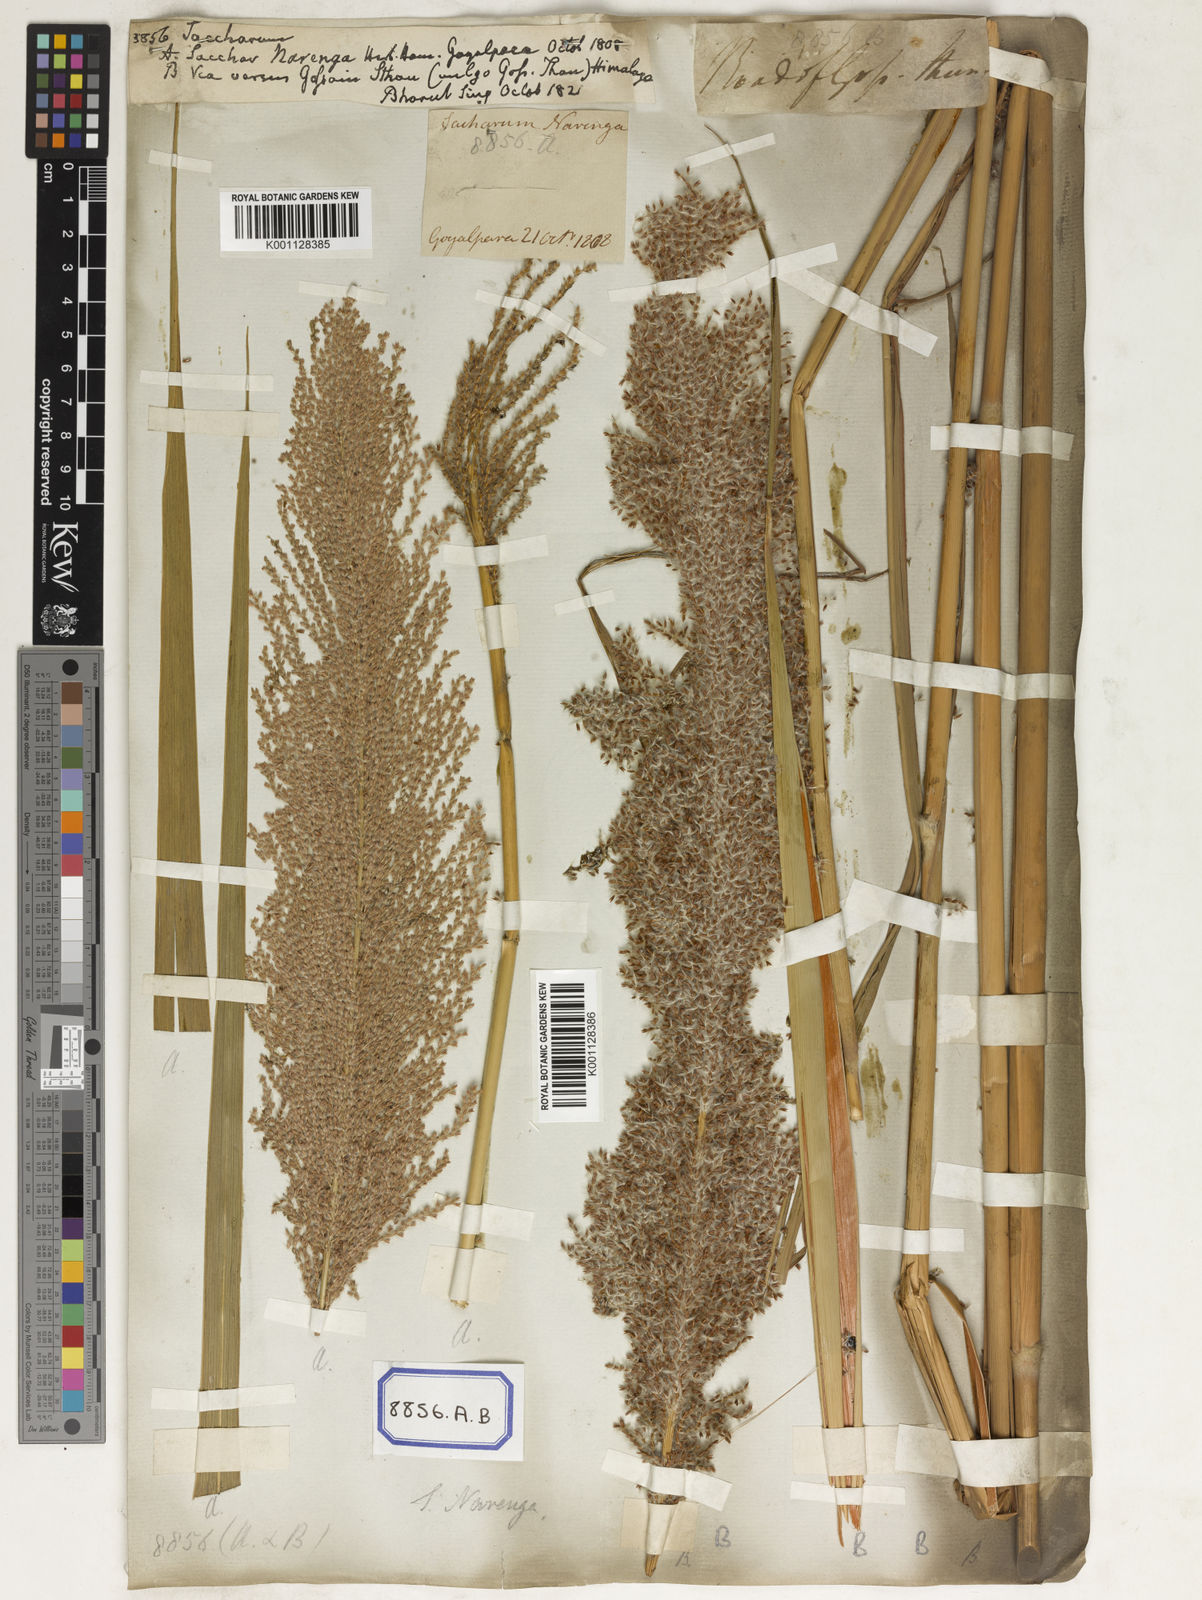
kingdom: Plantae
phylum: Tracheophyta
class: Liliopsida
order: Poales
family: Poaceae
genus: Saccharum
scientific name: Saccharum
